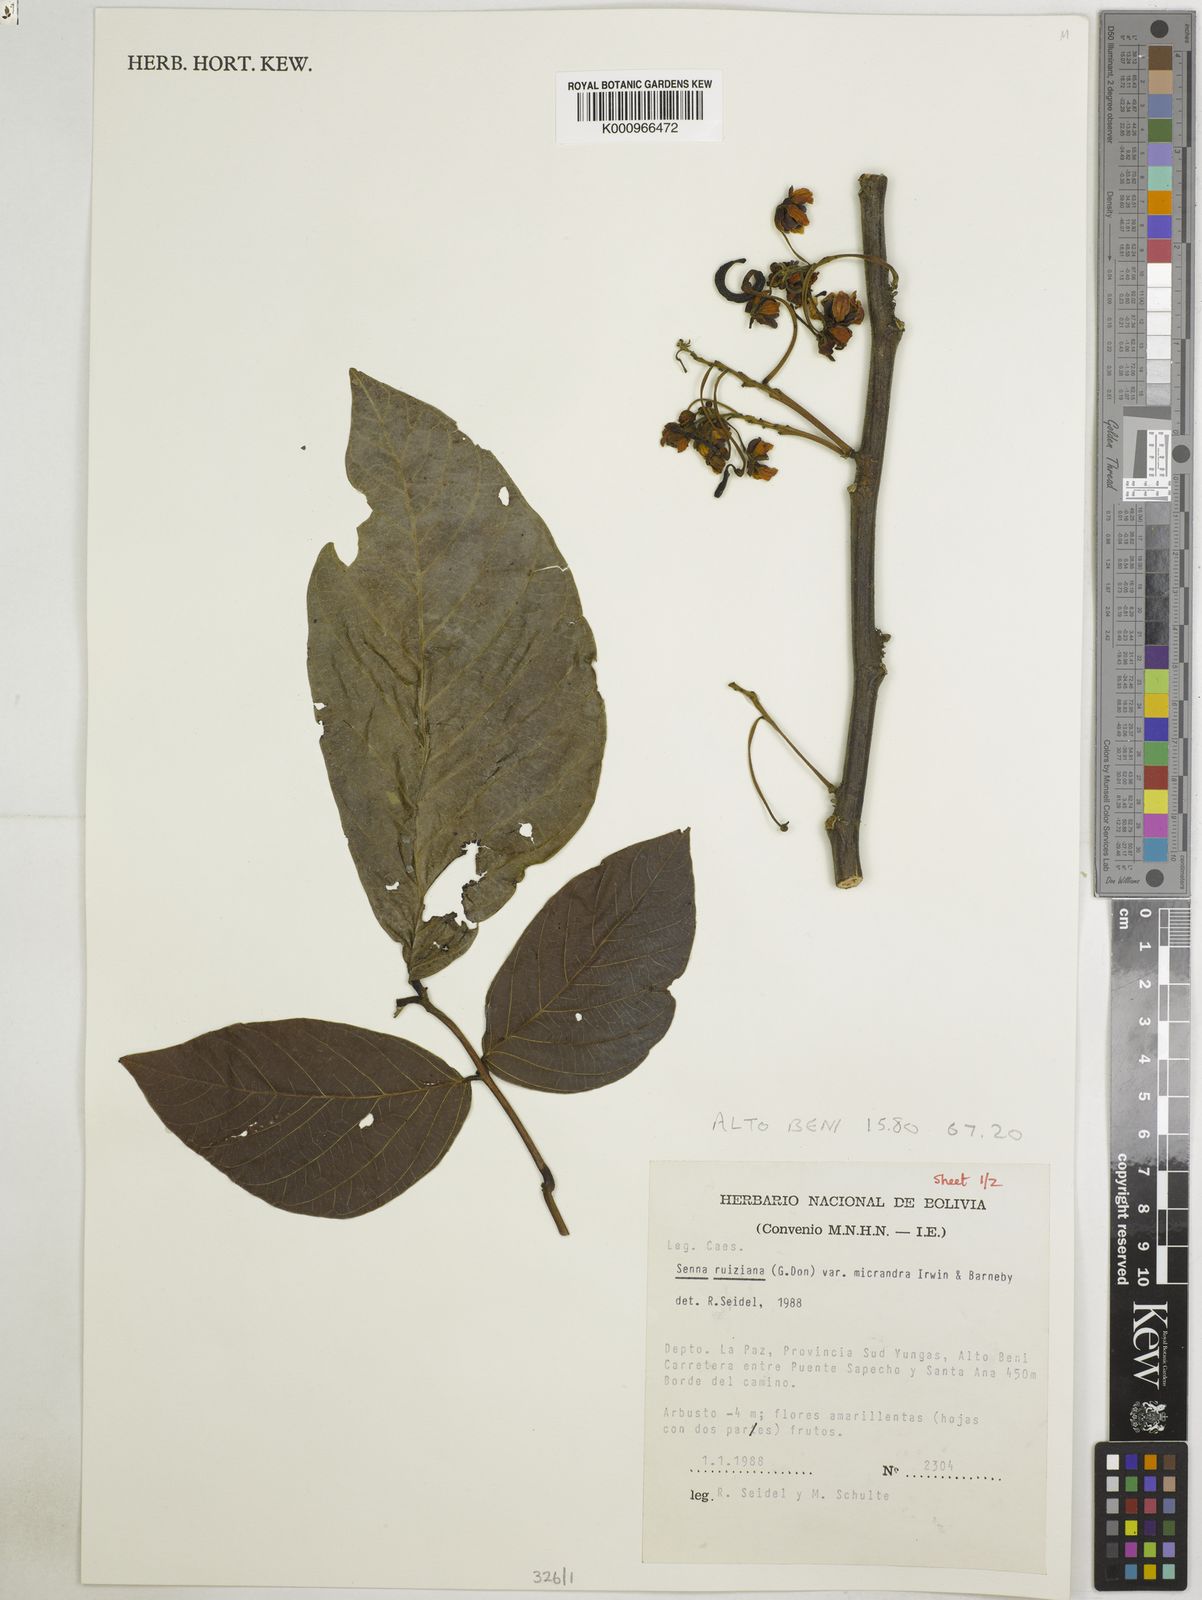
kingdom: Plantae
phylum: Tracheophyta
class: Magnoliopsida
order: Fabales
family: Fabaceae
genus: Senna
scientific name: Senna ruiziana
